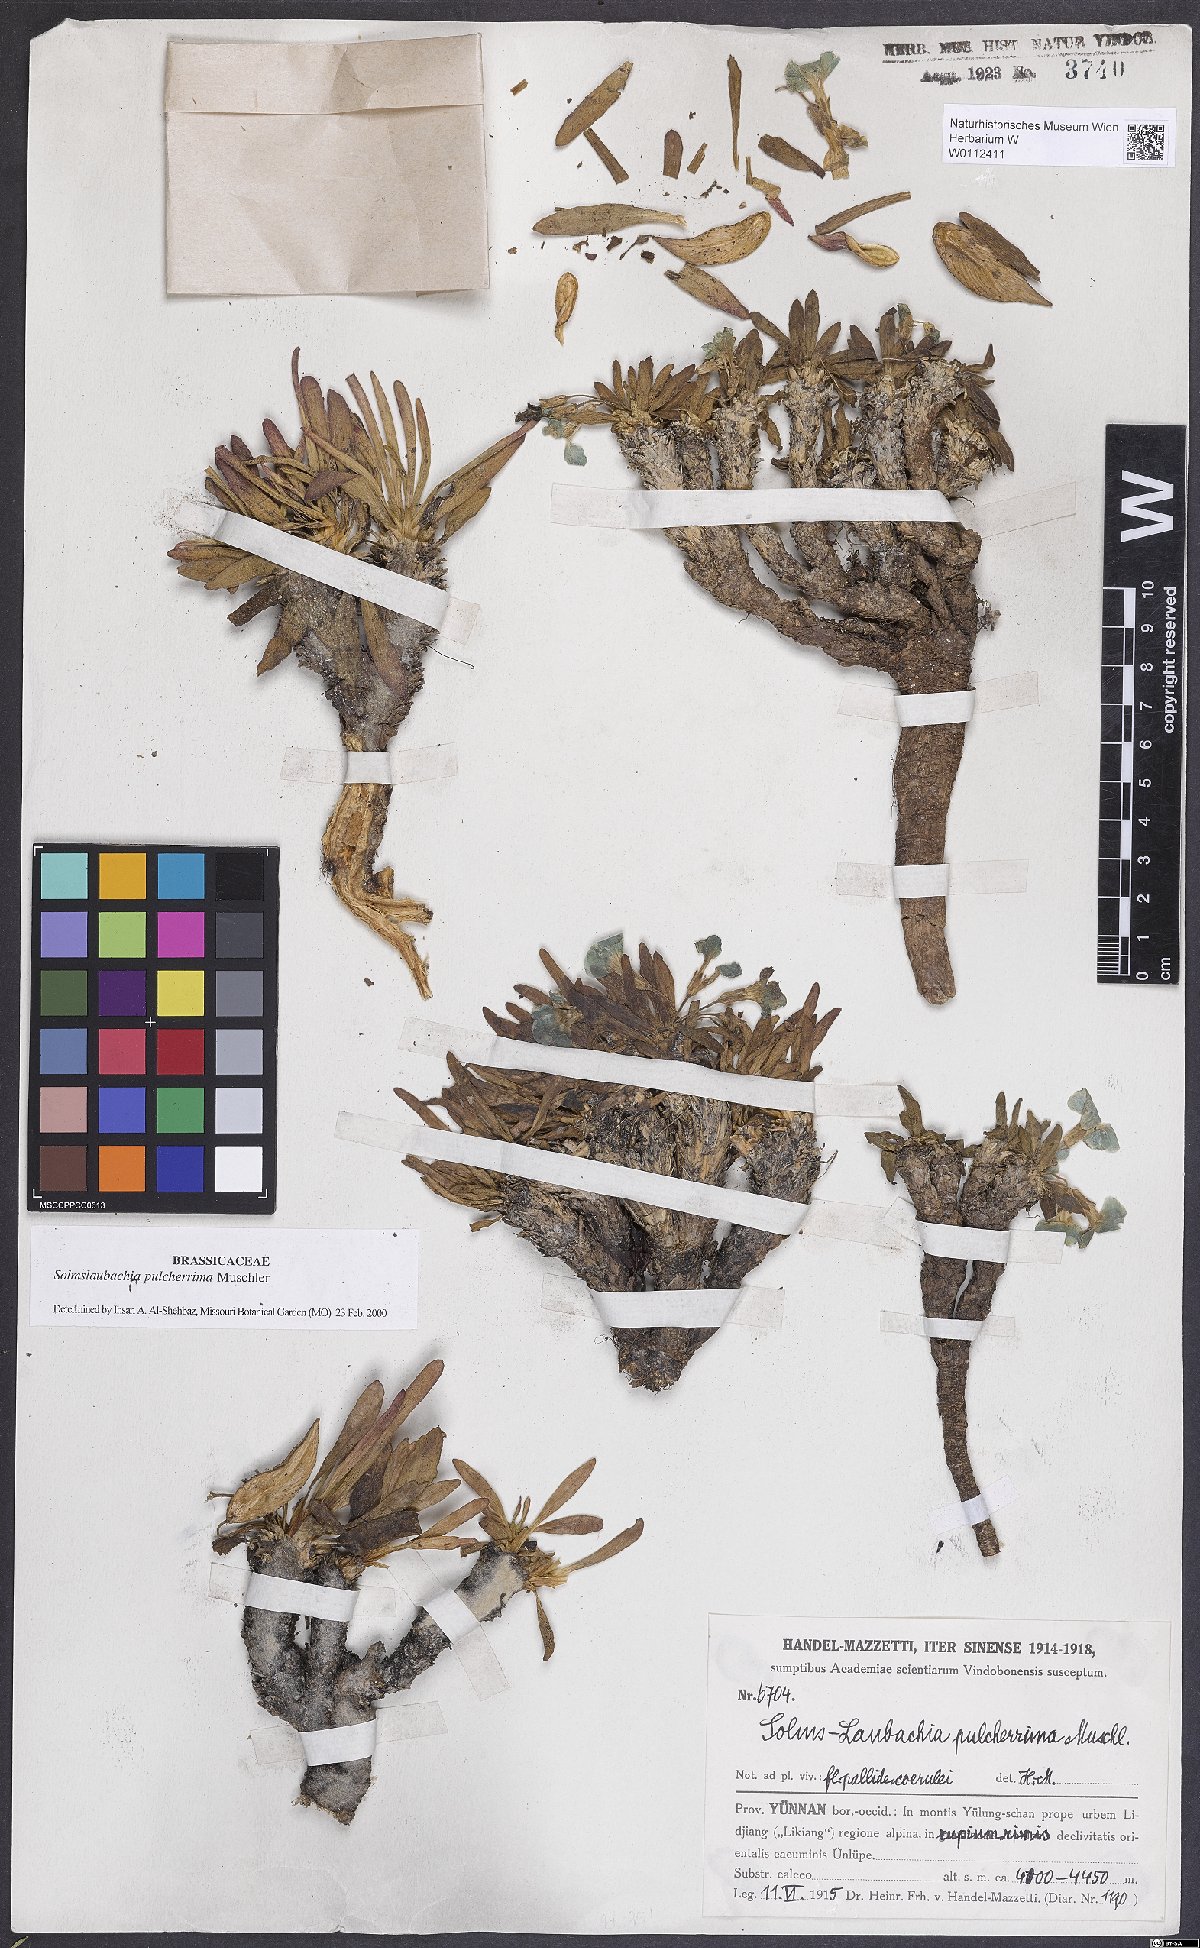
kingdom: Plantae
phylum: Tracheophyta
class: Magnoliopsida
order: Brassicales
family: Brassicaceae
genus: Solms-Laubachia
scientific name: Solms-Laubachia pulcherrima
